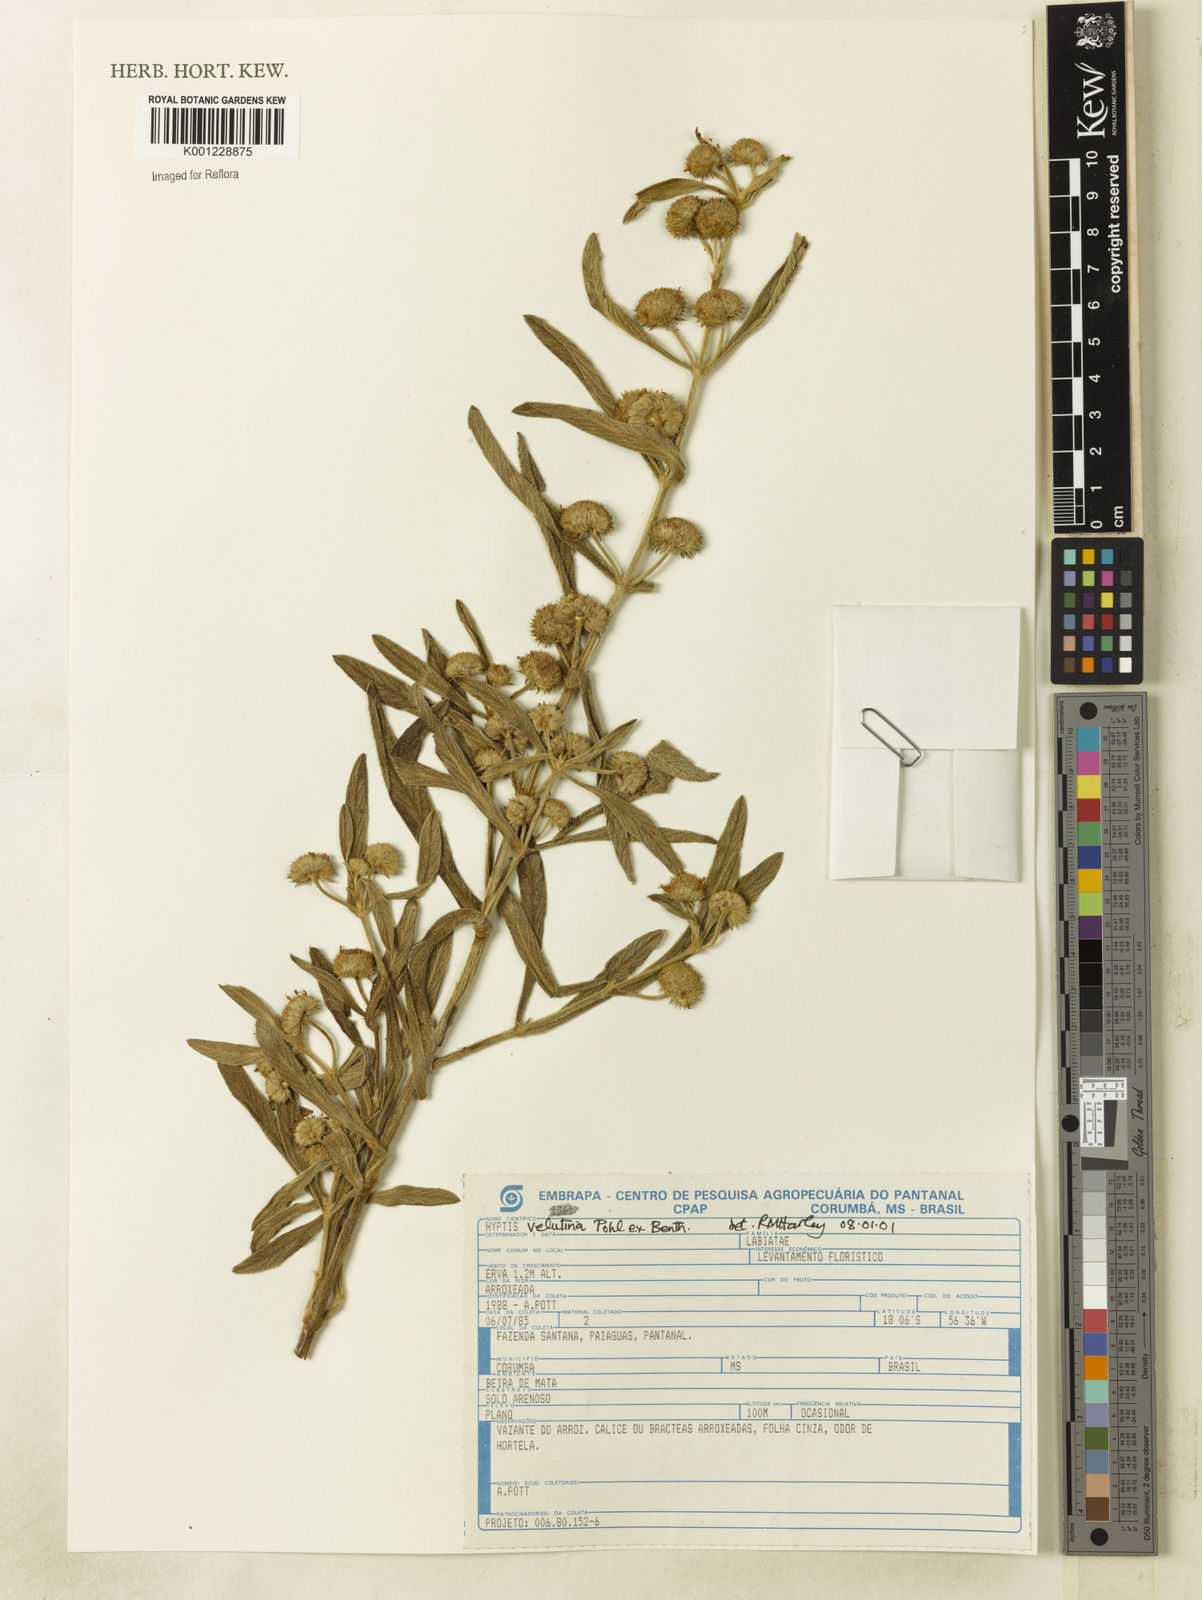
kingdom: Plantae
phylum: Tracheophyta
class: Magnoliopsida
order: Lamiales
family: Lamiaceae
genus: Hyptis
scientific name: Hyptis velutina
